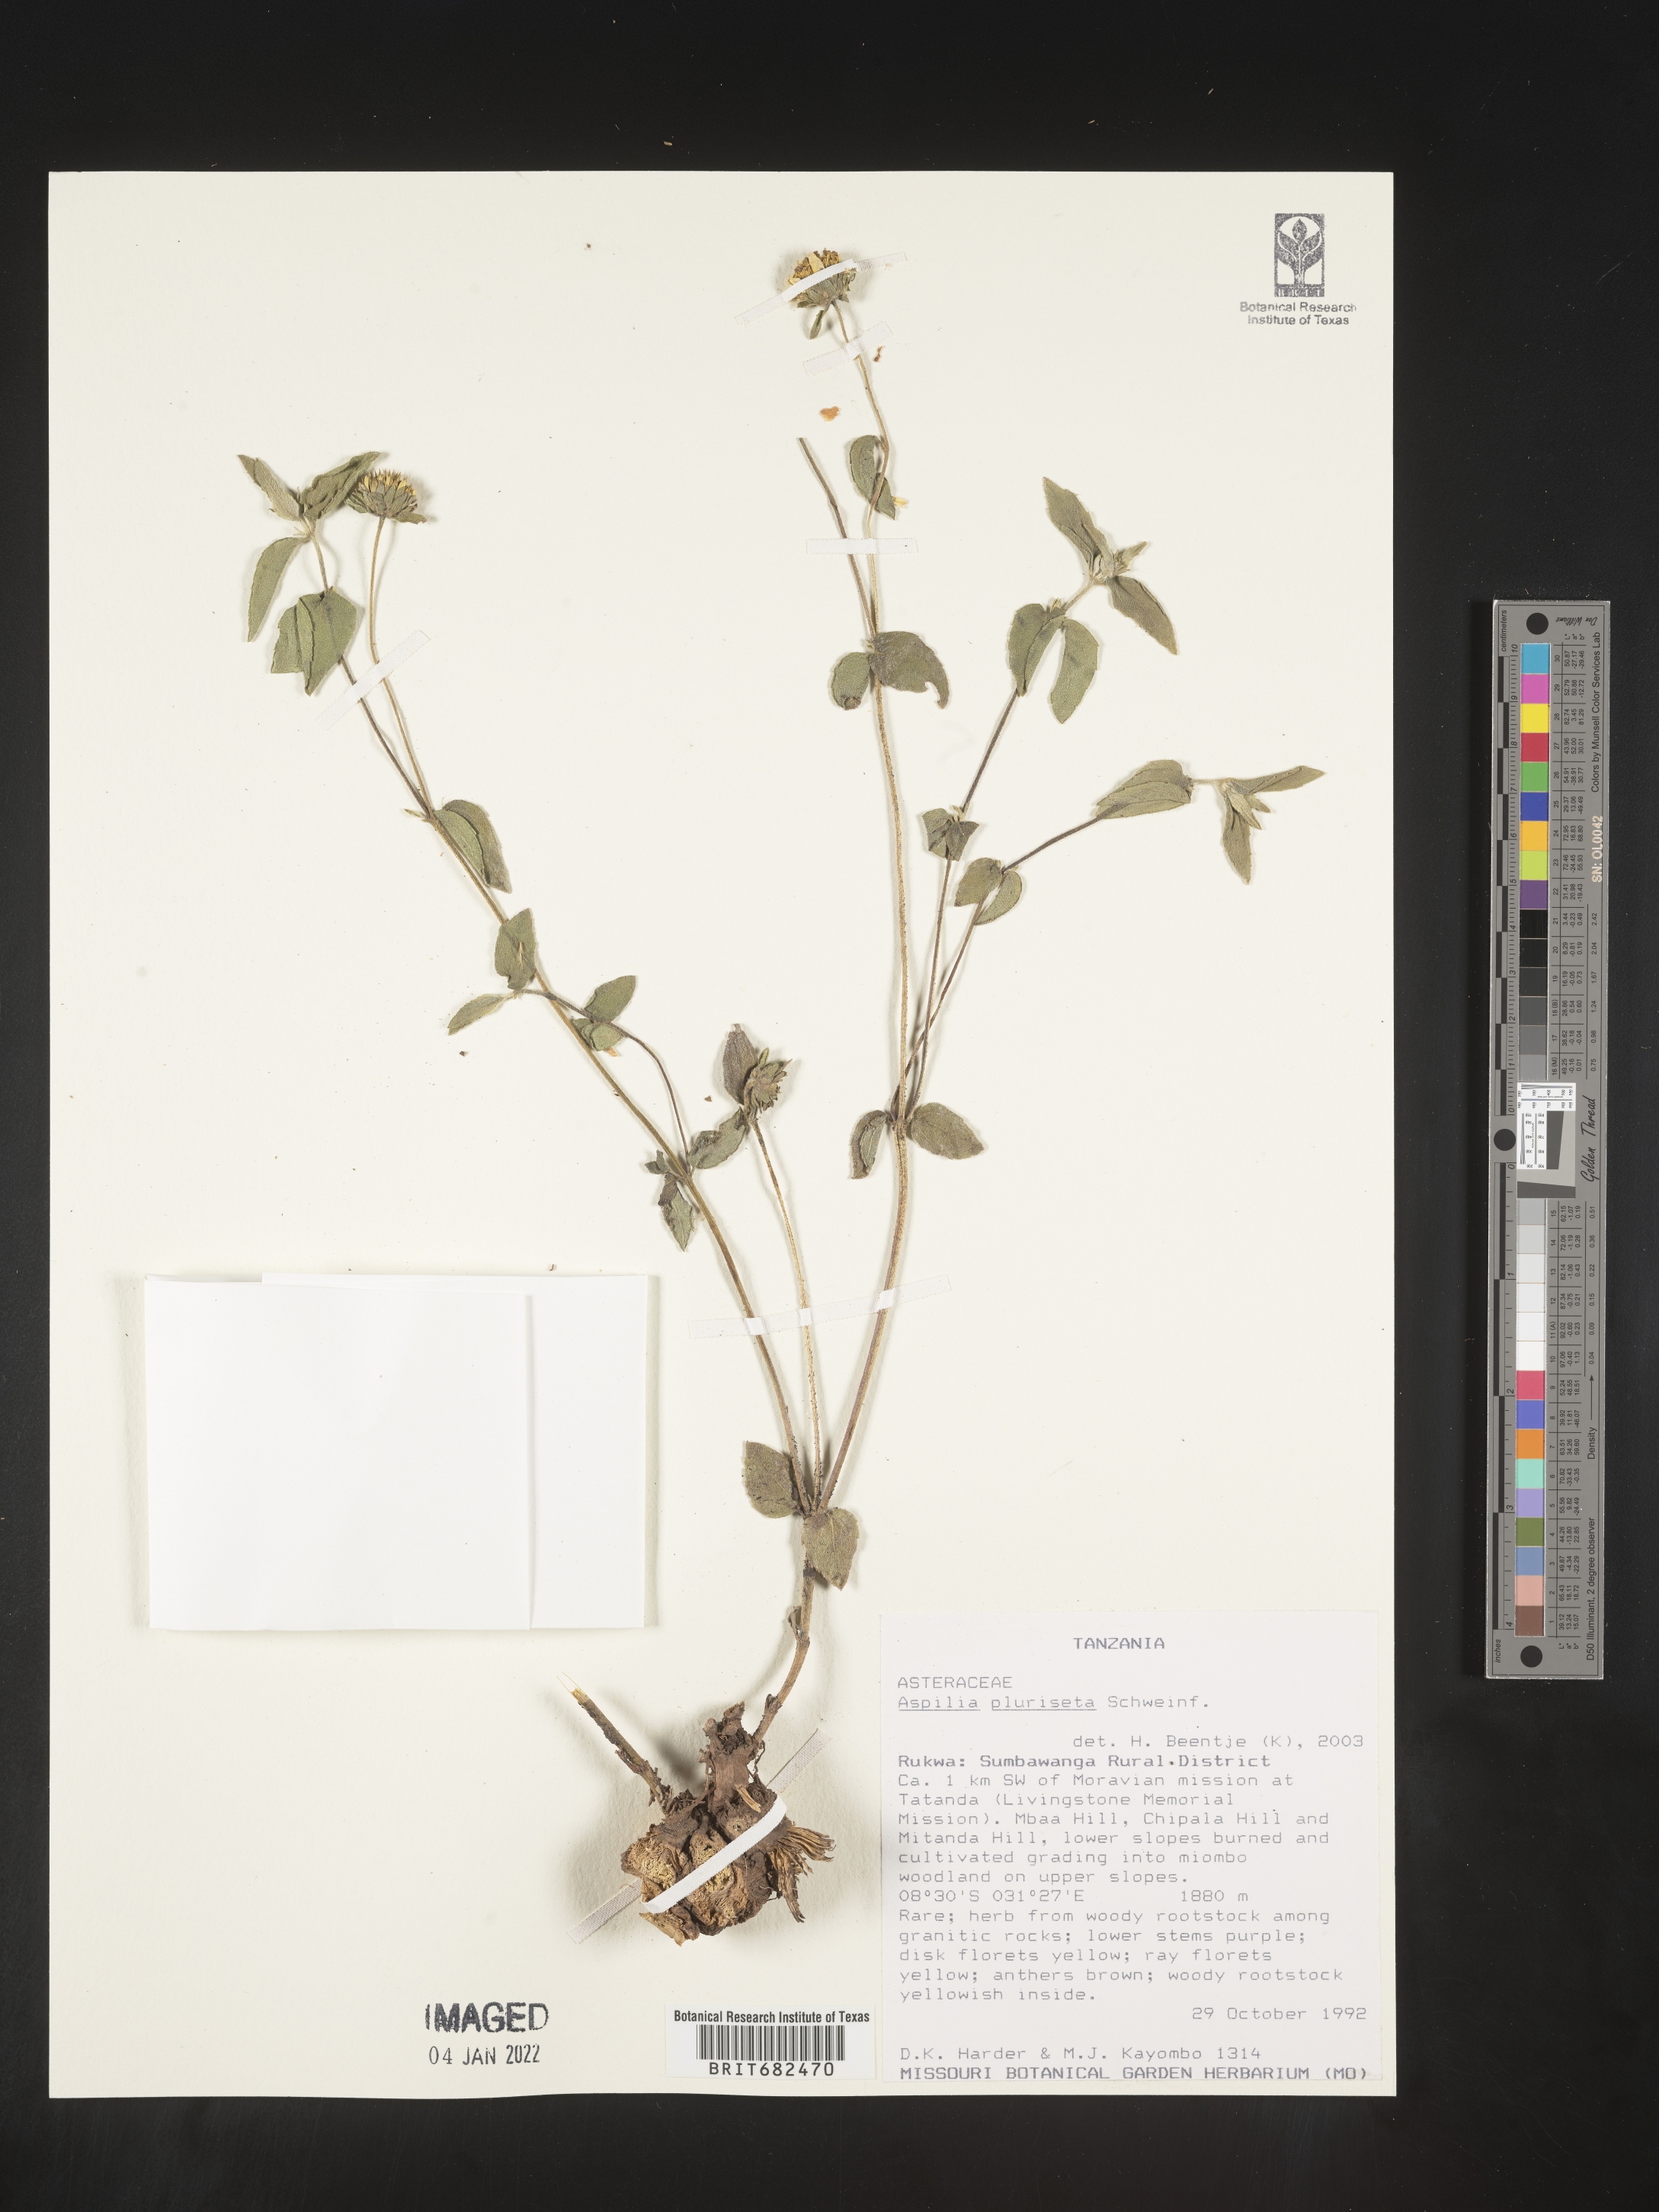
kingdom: Plantae
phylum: Tracheophyta
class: Magnoliopsida
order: Asterales
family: Asteraceae
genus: Aspilia
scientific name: Aspilia
